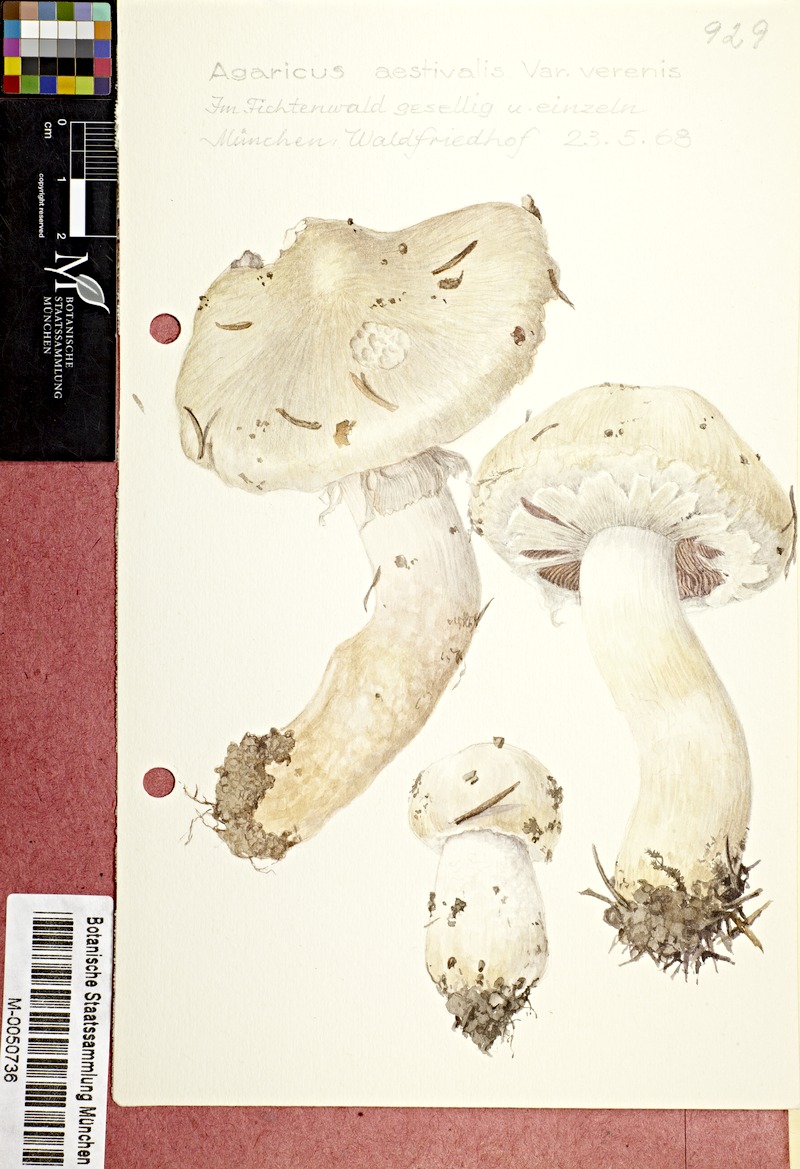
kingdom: Fungi
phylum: Basidiomycota
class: Agaricomycetes
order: Agaricales
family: Agaricaceae
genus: Agaricus
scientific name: Agaricus altipes
